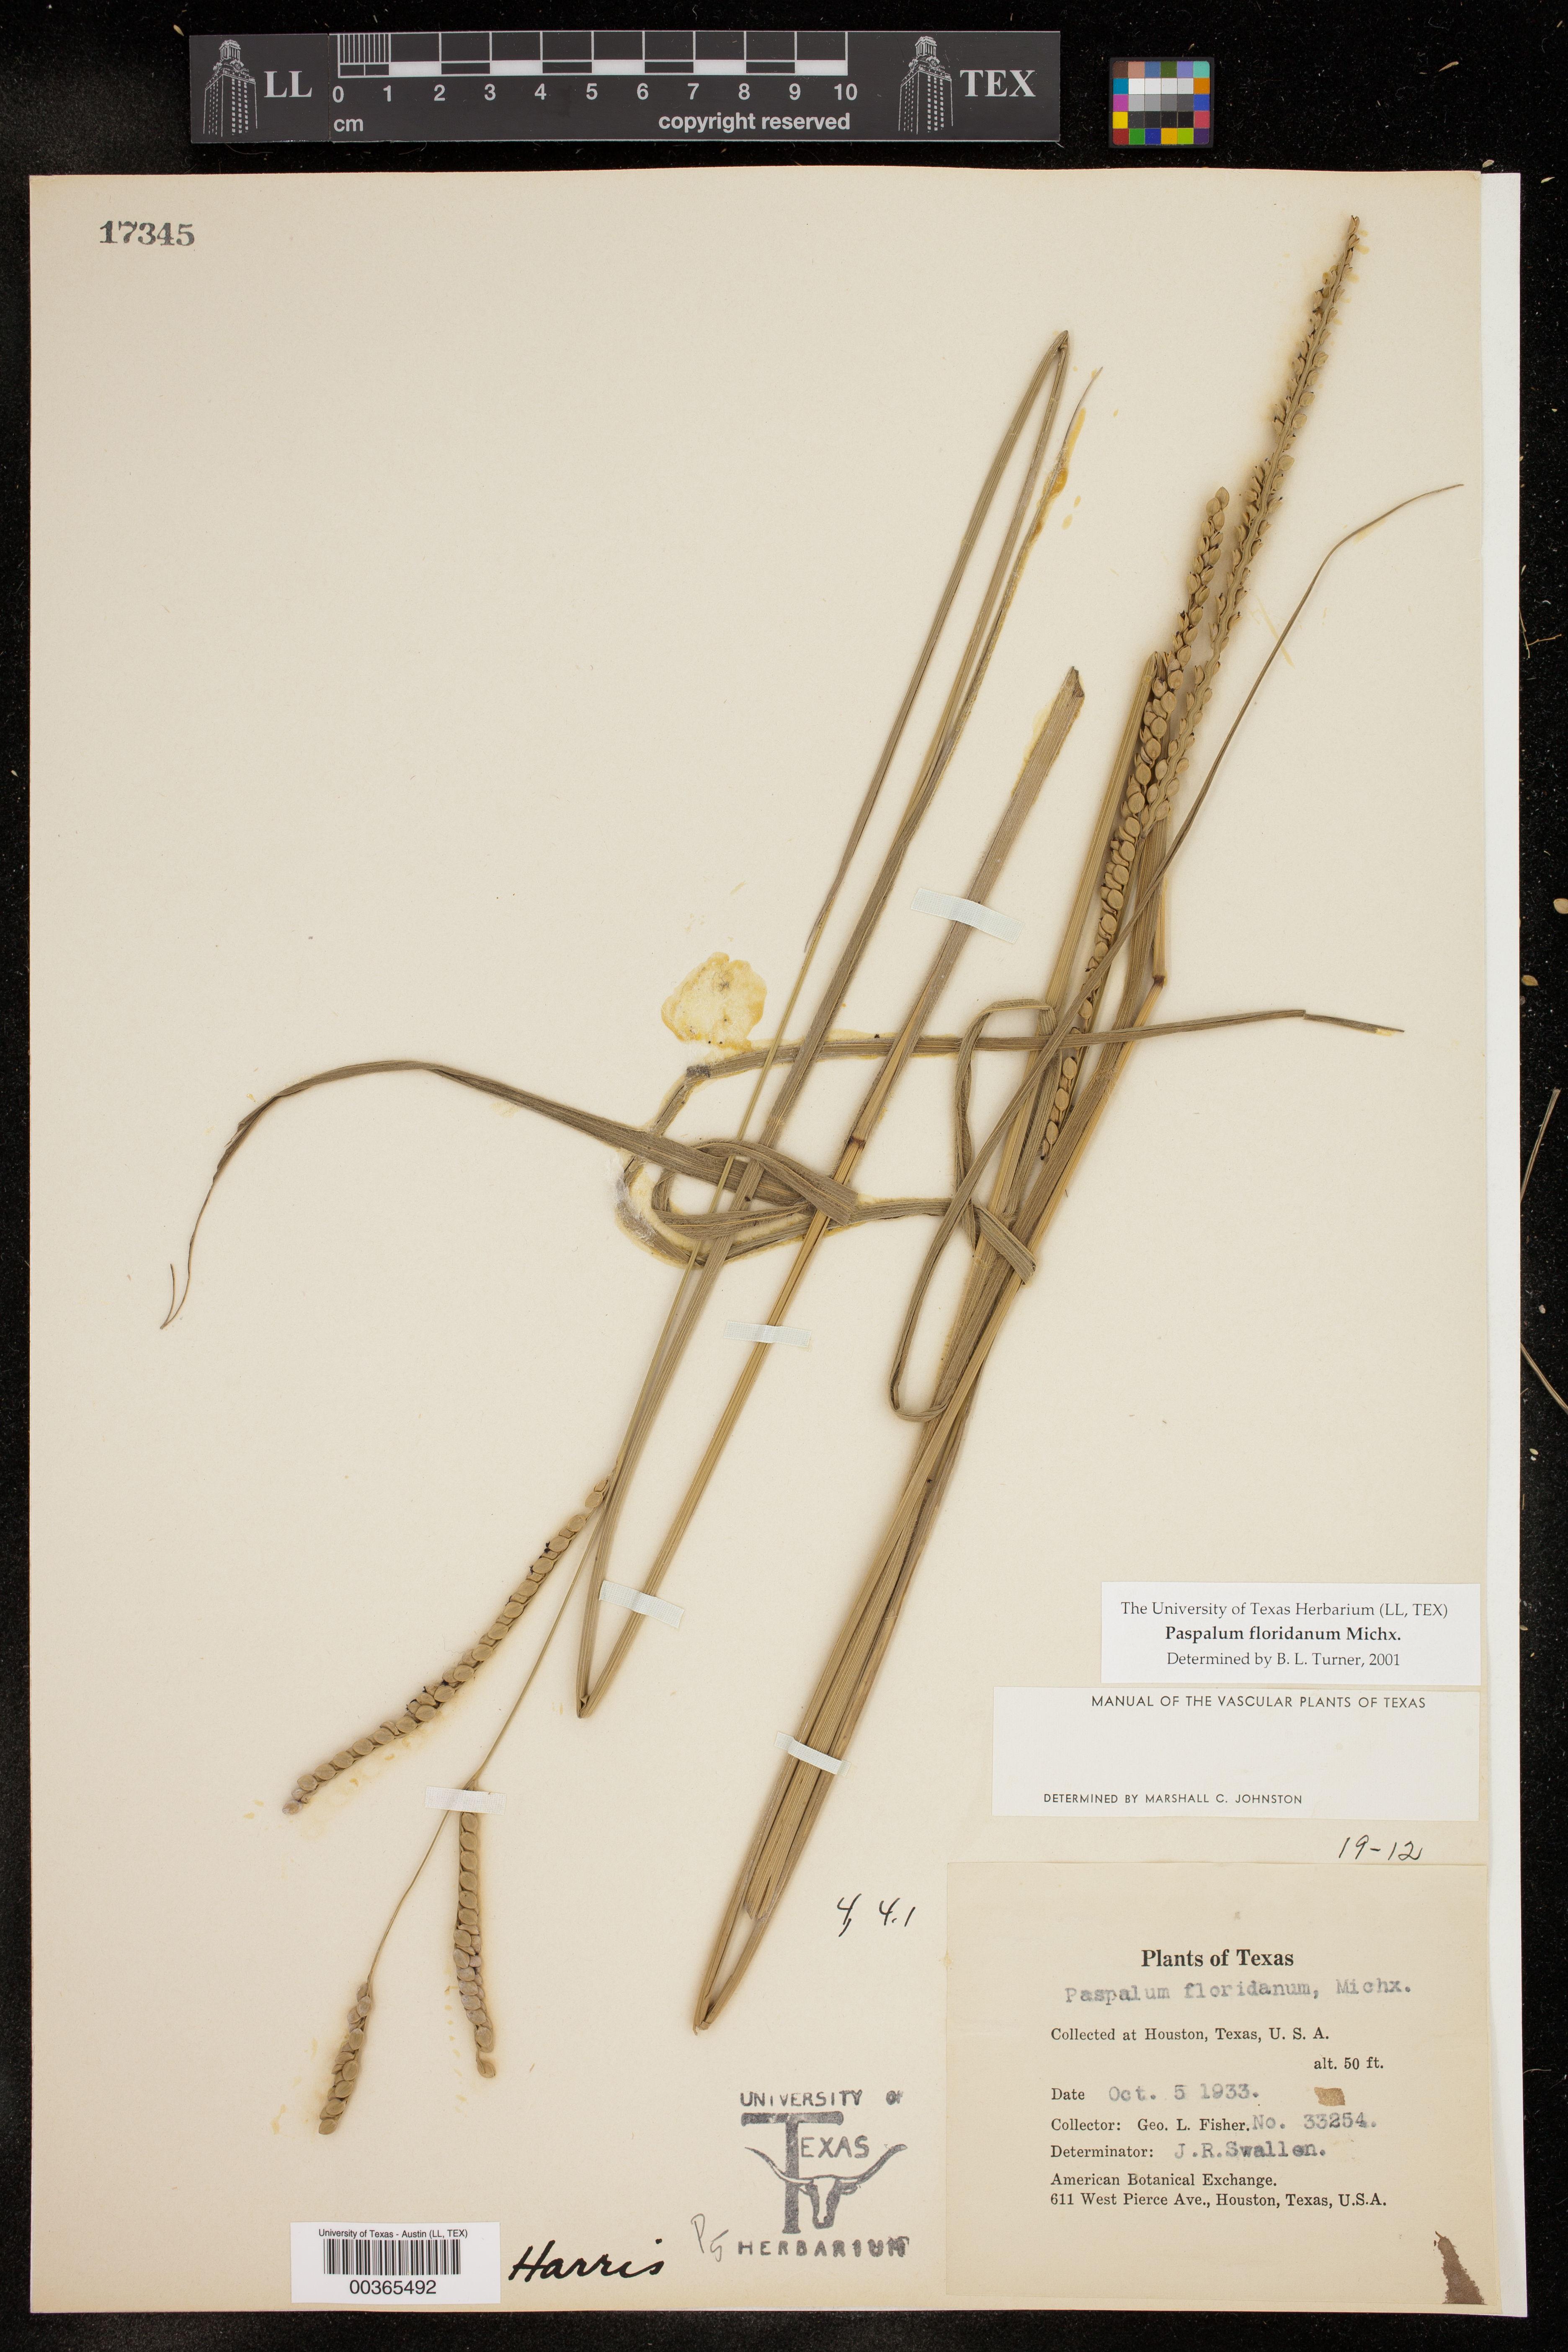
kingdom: Plantae
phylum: Tracheophyta
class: Liliopsida
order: Poales
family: Poaceae
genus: Paspalum
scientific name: Paspalum floridanum
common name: Florida paspalum
